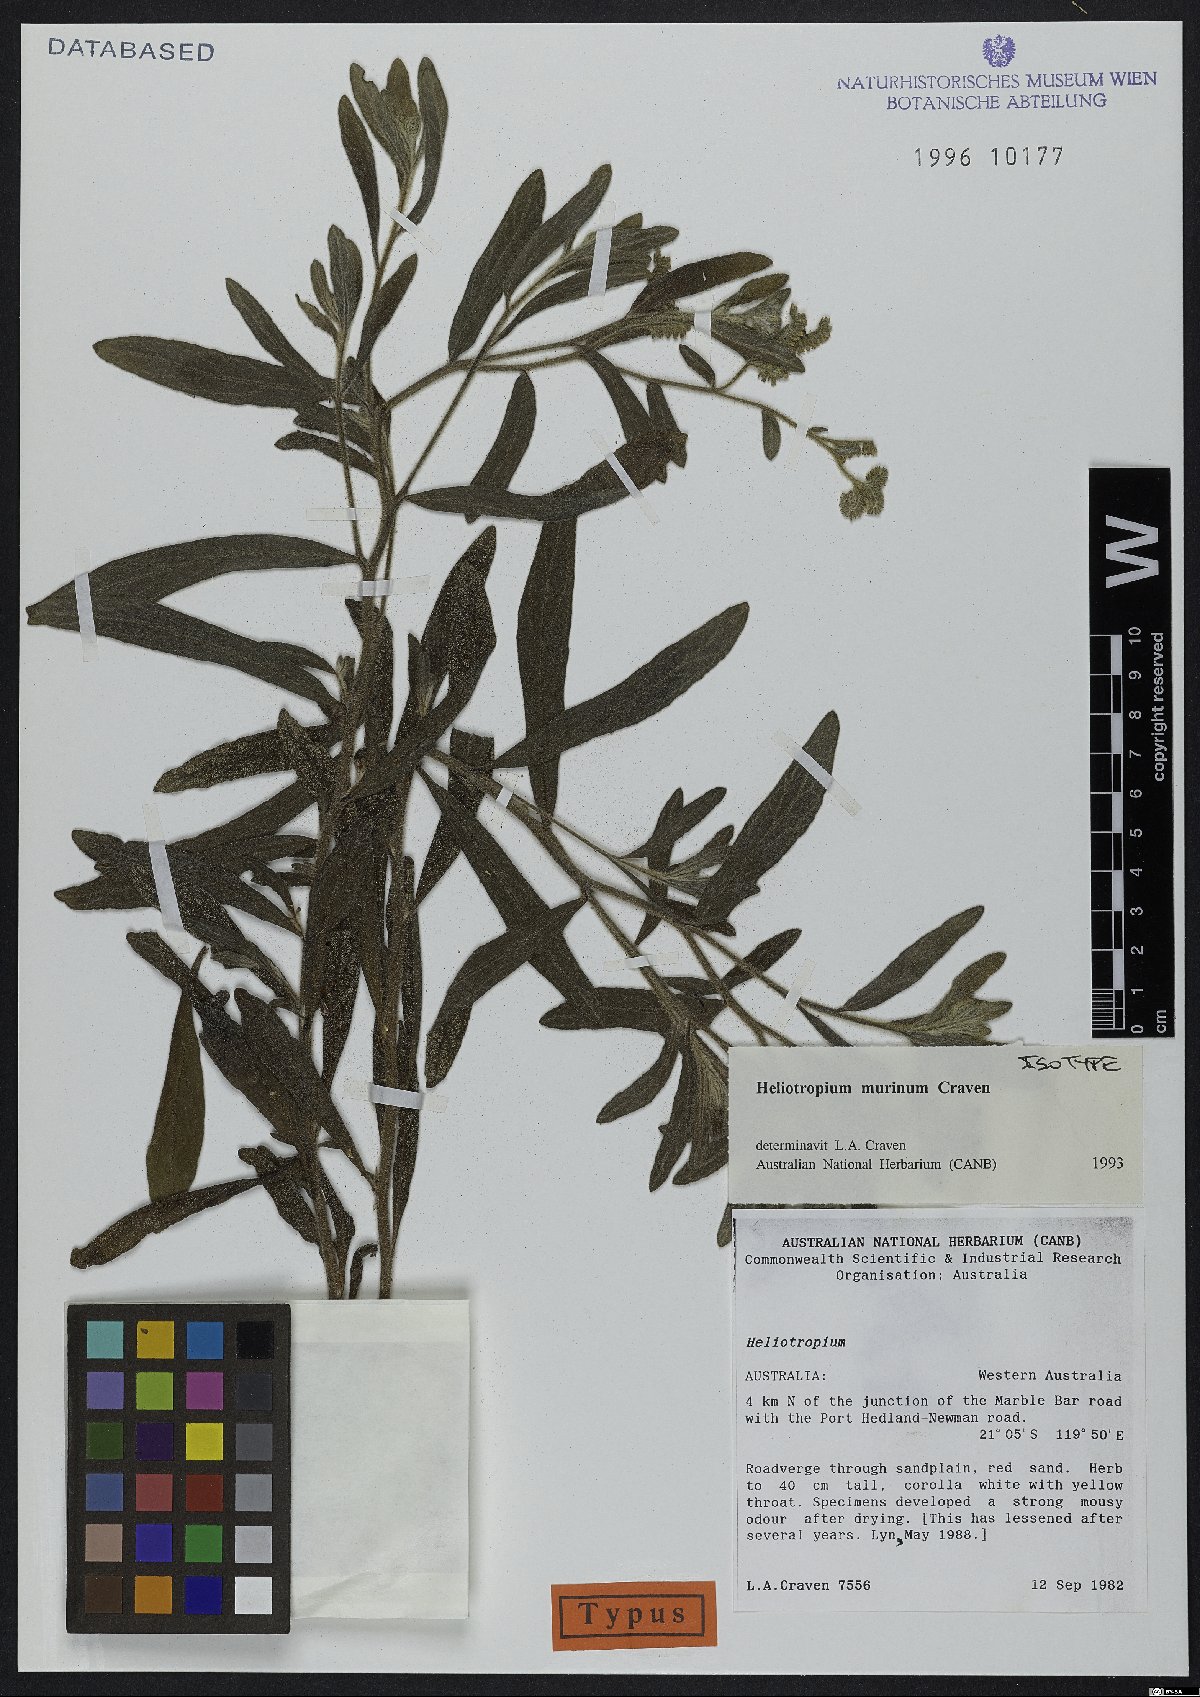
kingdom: Plantae
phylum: Tracheophyta
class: Magnoliopsida
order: Boraginales
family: Heliotropiaceae
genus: Heliotropium
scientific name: Heliotropium murinum
